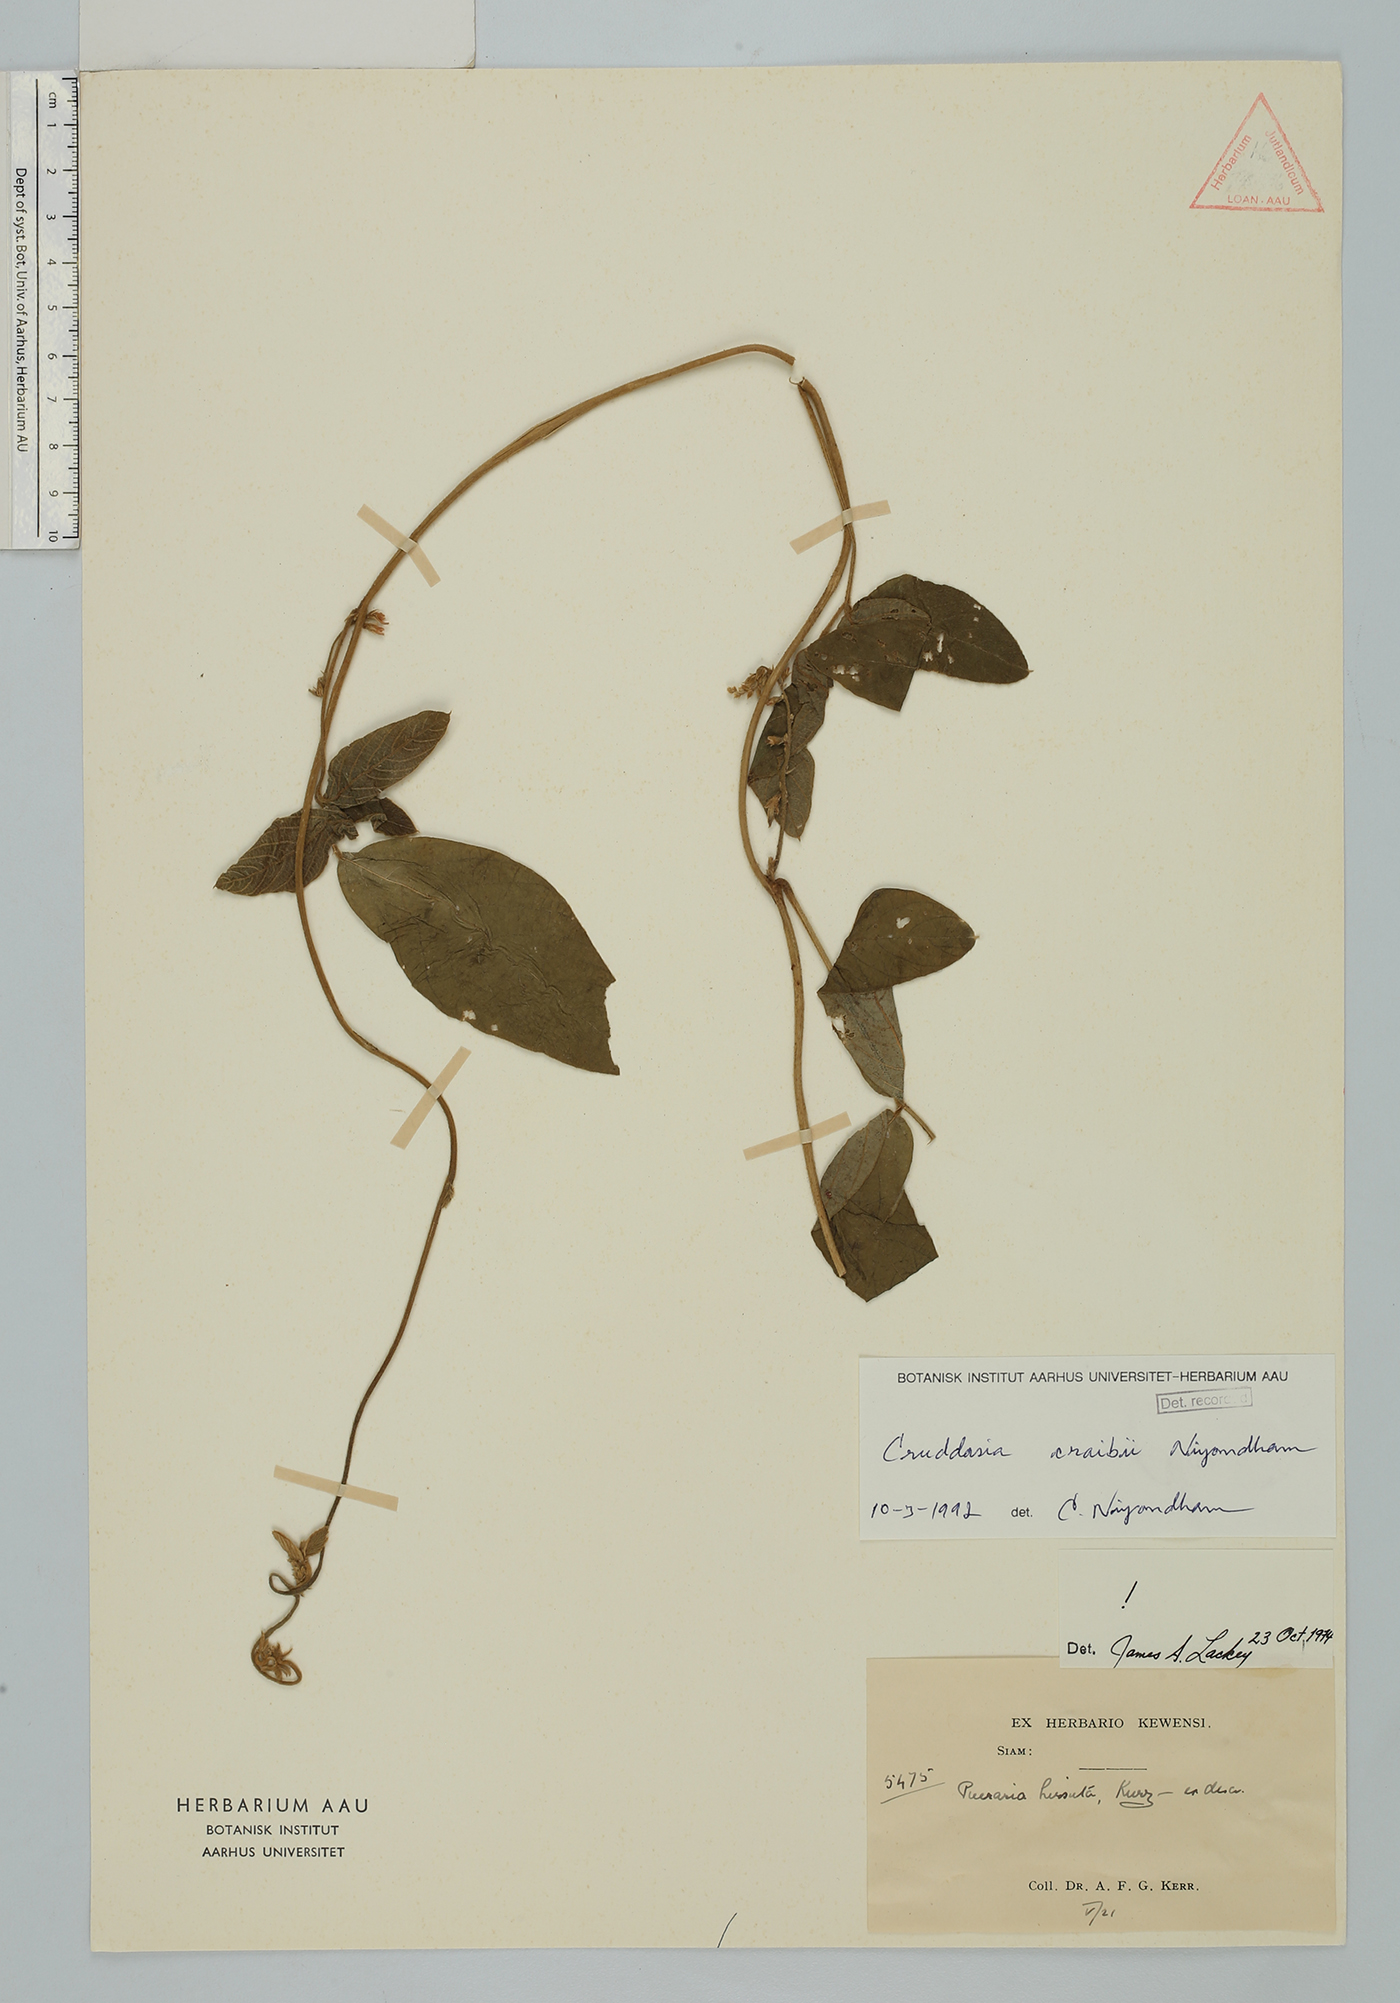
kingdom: Plantae
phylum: Tracheophyta
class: Magnoliopsida
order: Fabales
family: Fabaceae
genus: Cruddasia
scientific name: Cruddasia craibii
